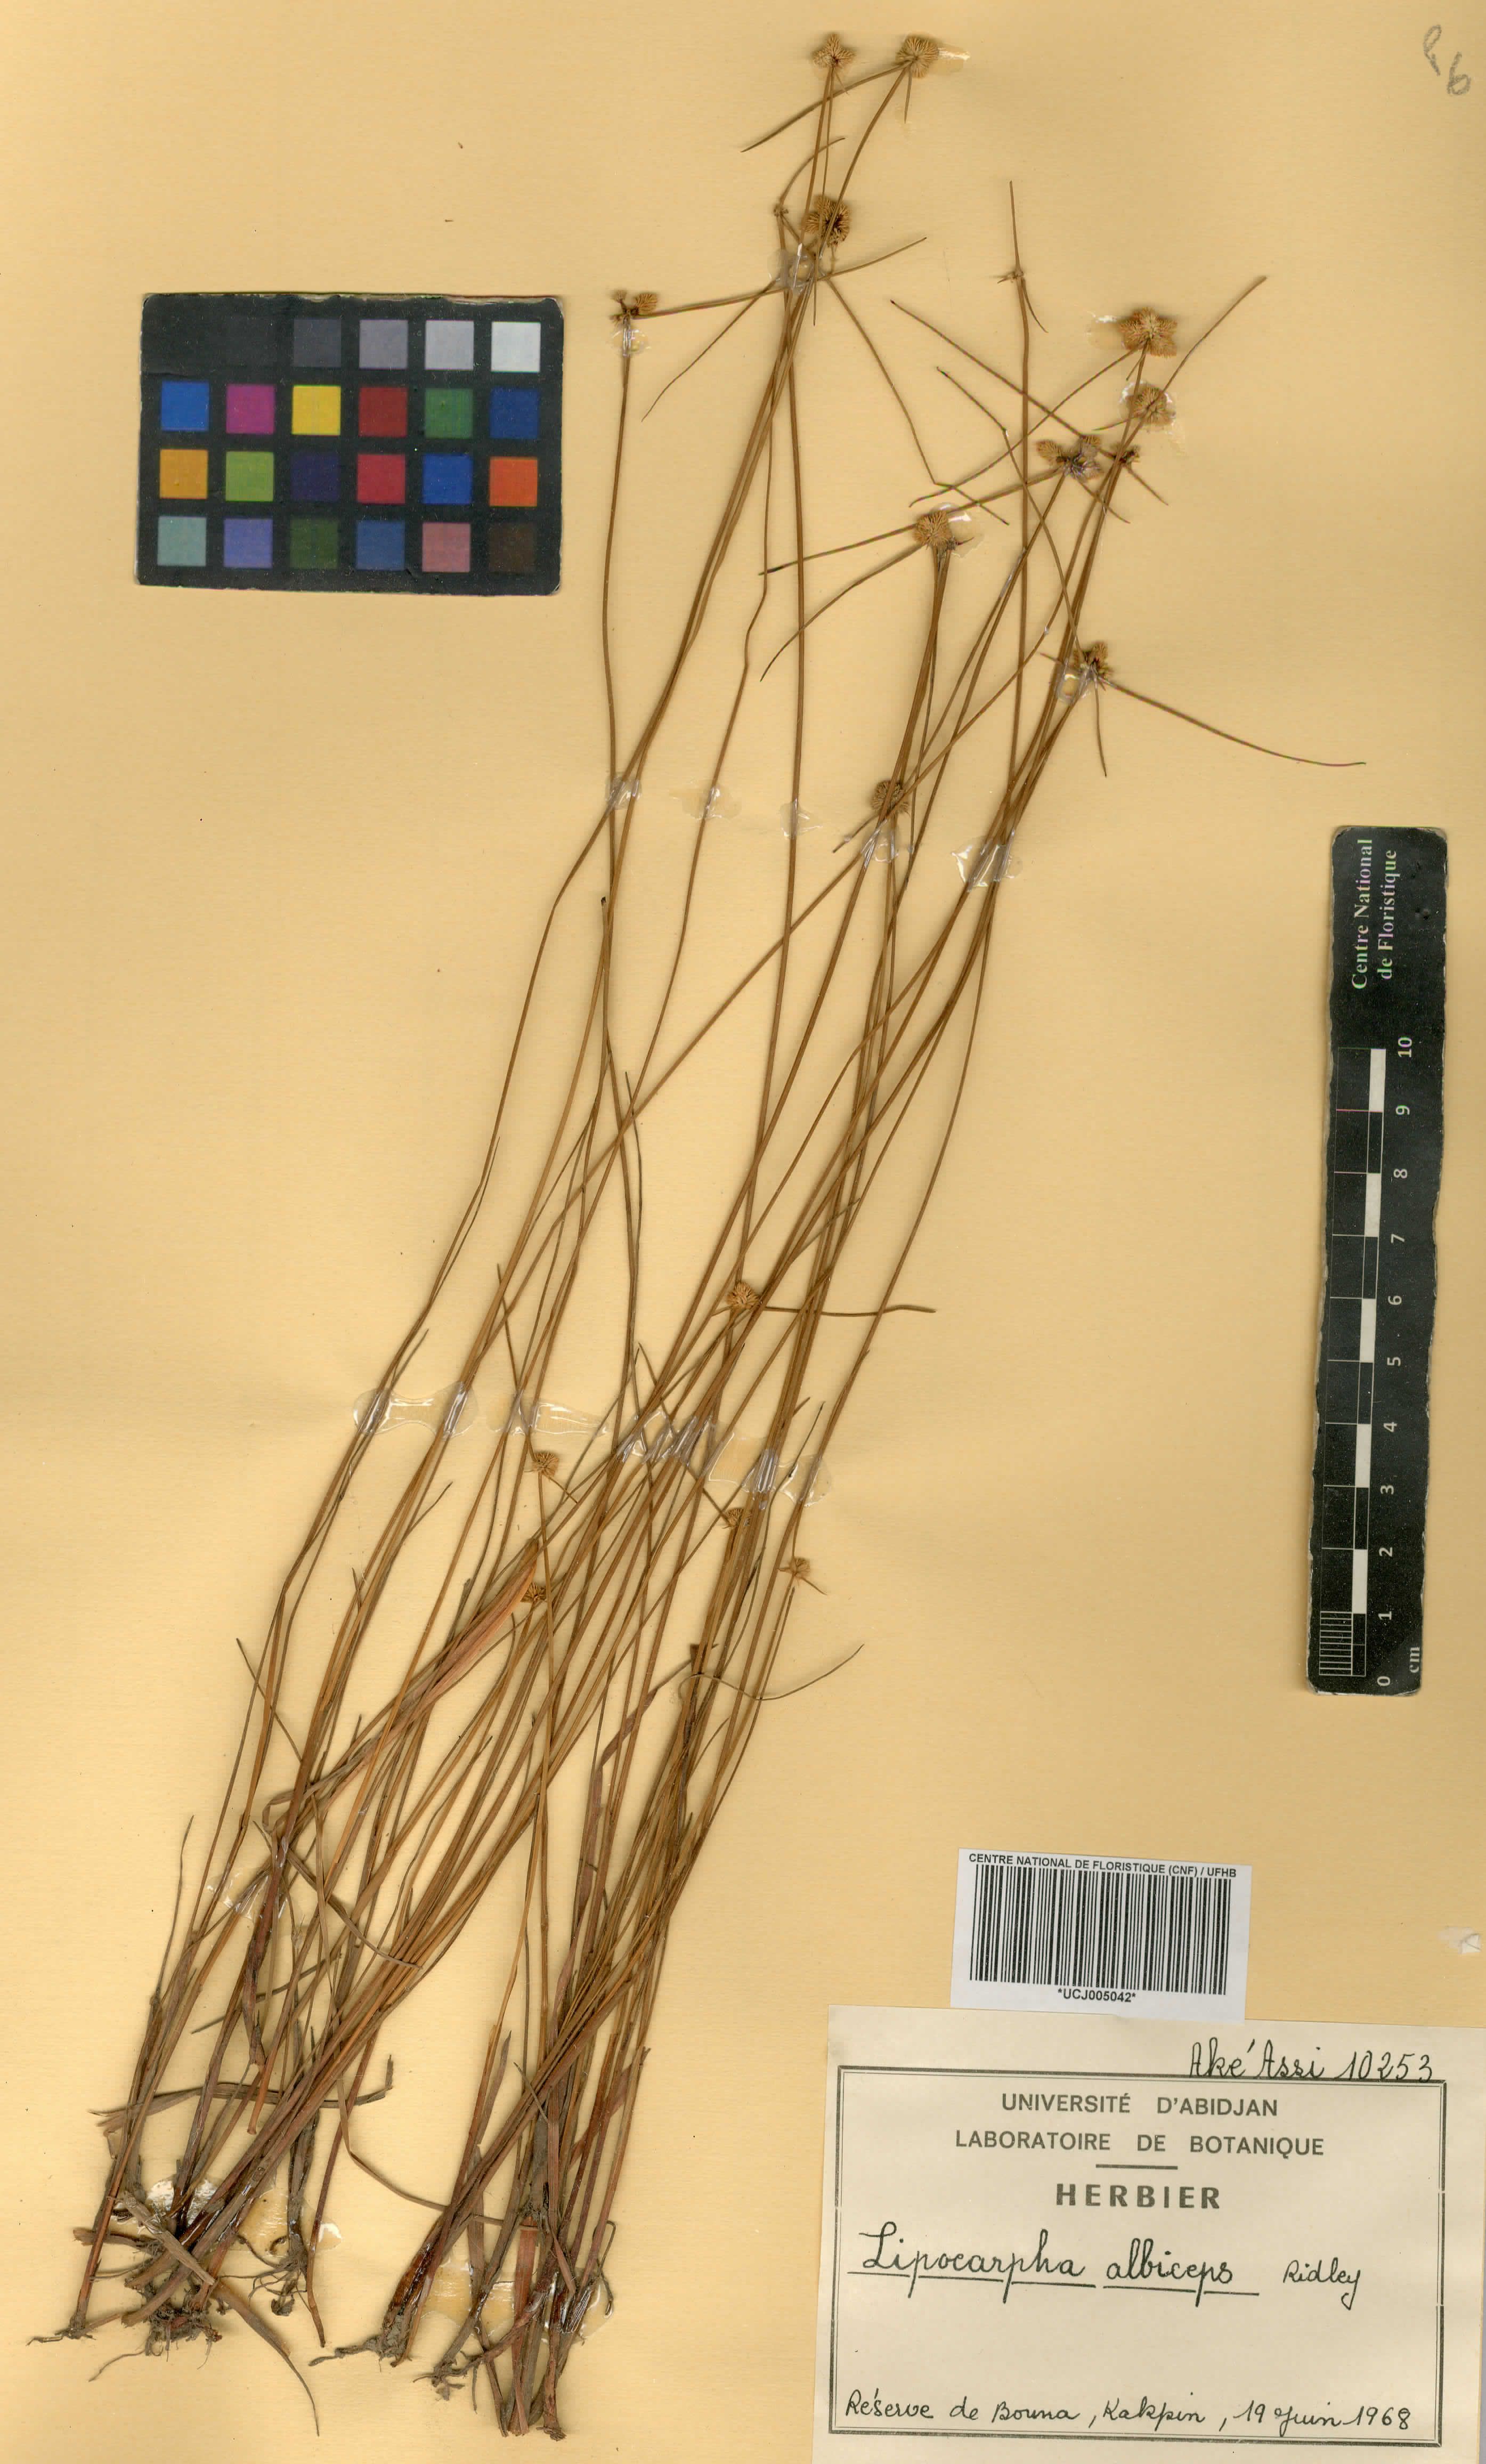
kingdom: Plantae
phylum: Tracheophyta
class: Liliopsida
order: Poales
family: Cyperaceae
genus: Cyperus
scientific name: Cyperus purpureoluteus
